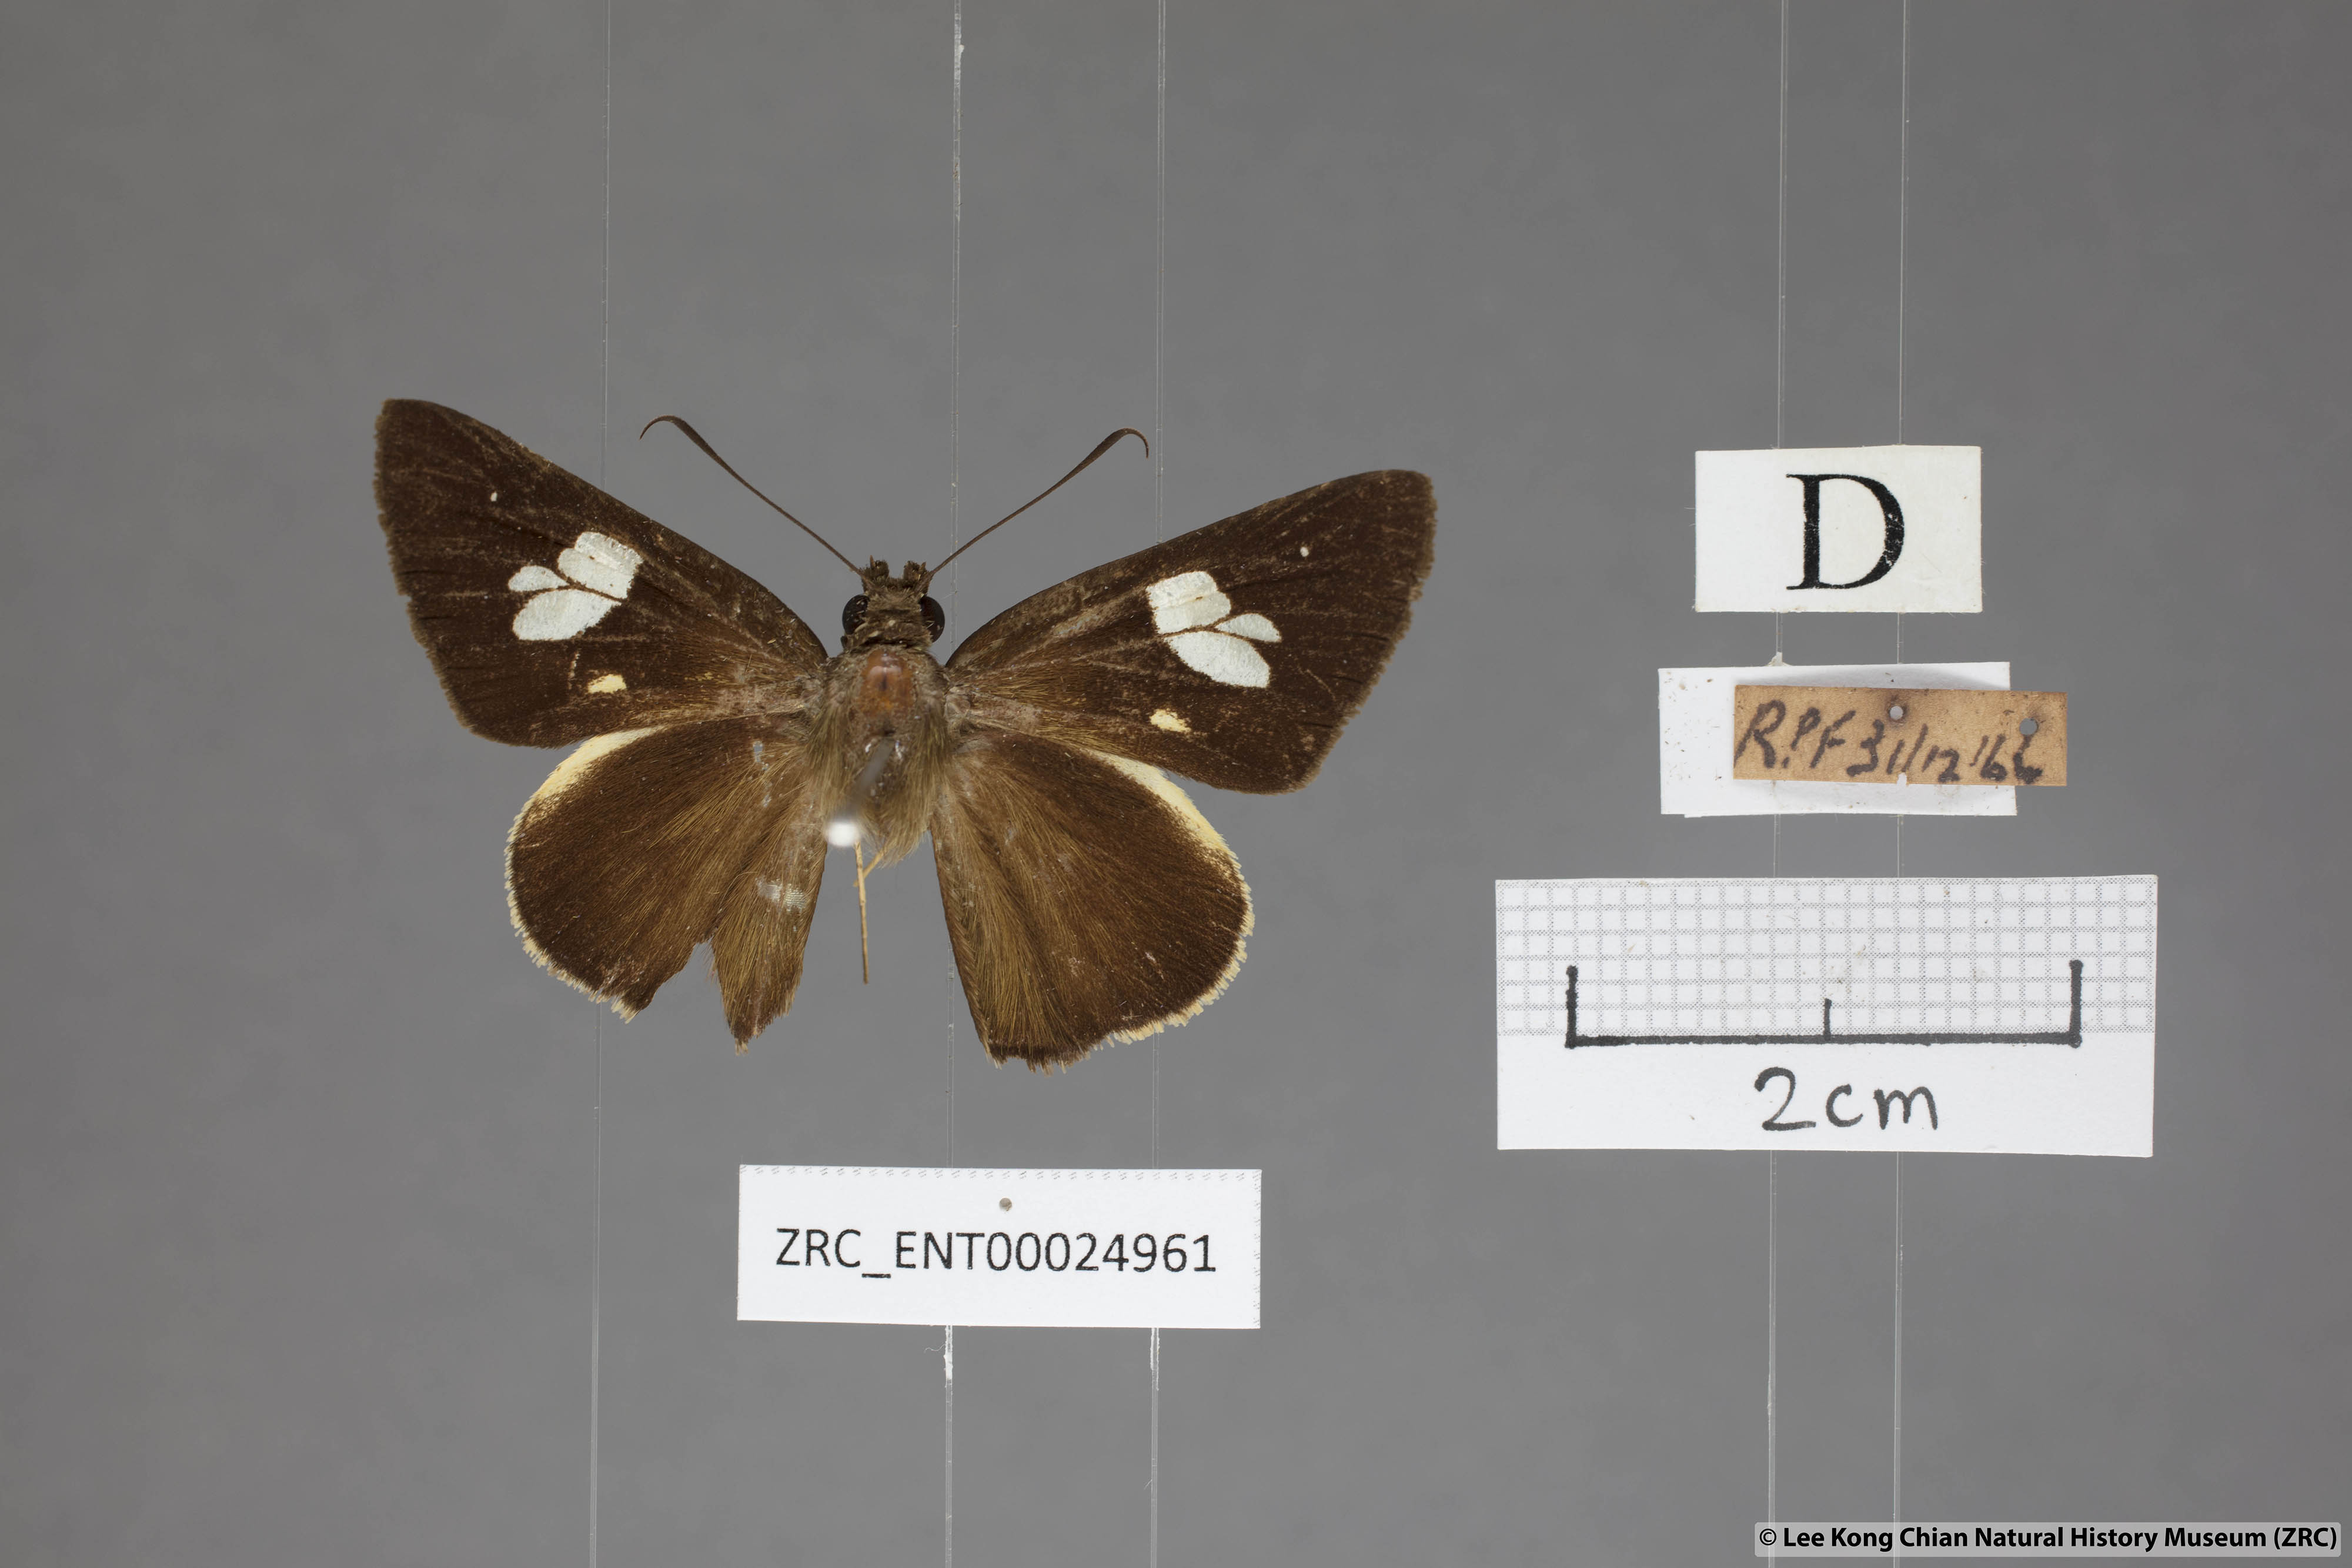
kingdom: Animalia
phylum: Arthropoda
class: Insecta
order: Lepidoptera
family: Hesperiidae
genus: Lotongus
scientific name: Lotongus calathus
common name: White-tipped palmer
